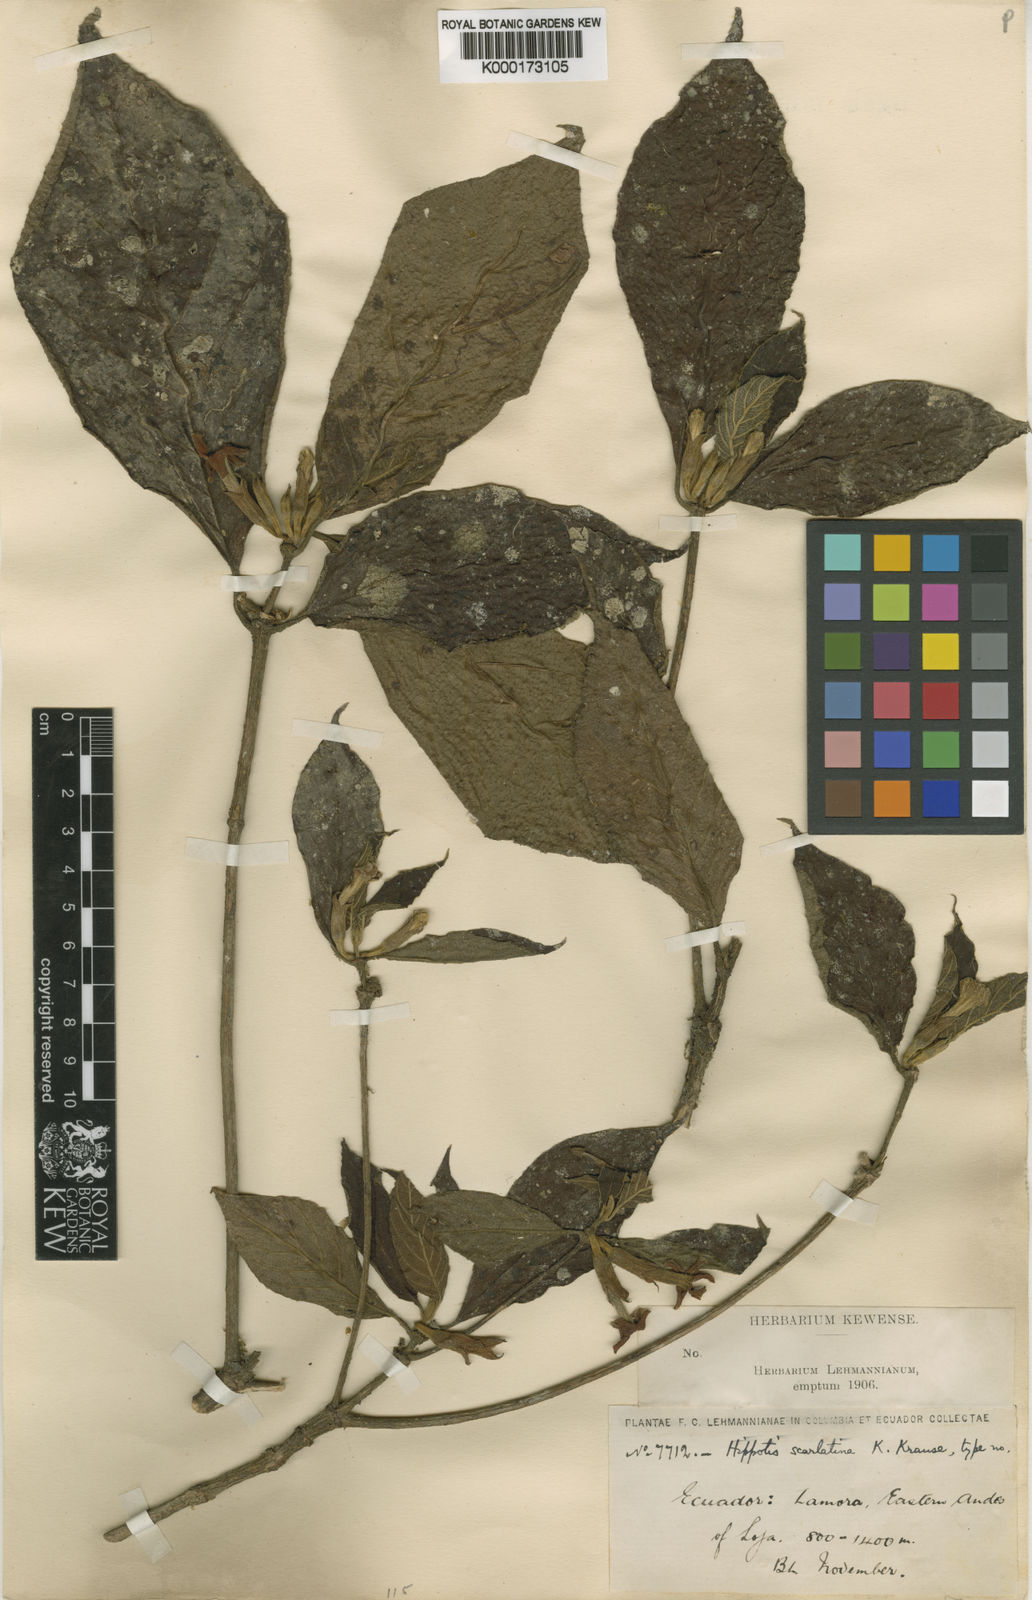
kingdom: Plantae
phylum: Tracheophyta
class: Magnoliopsida
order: Gentianales
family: Rubiaceae
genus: Hippotis
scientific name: Hippotis brevipes
